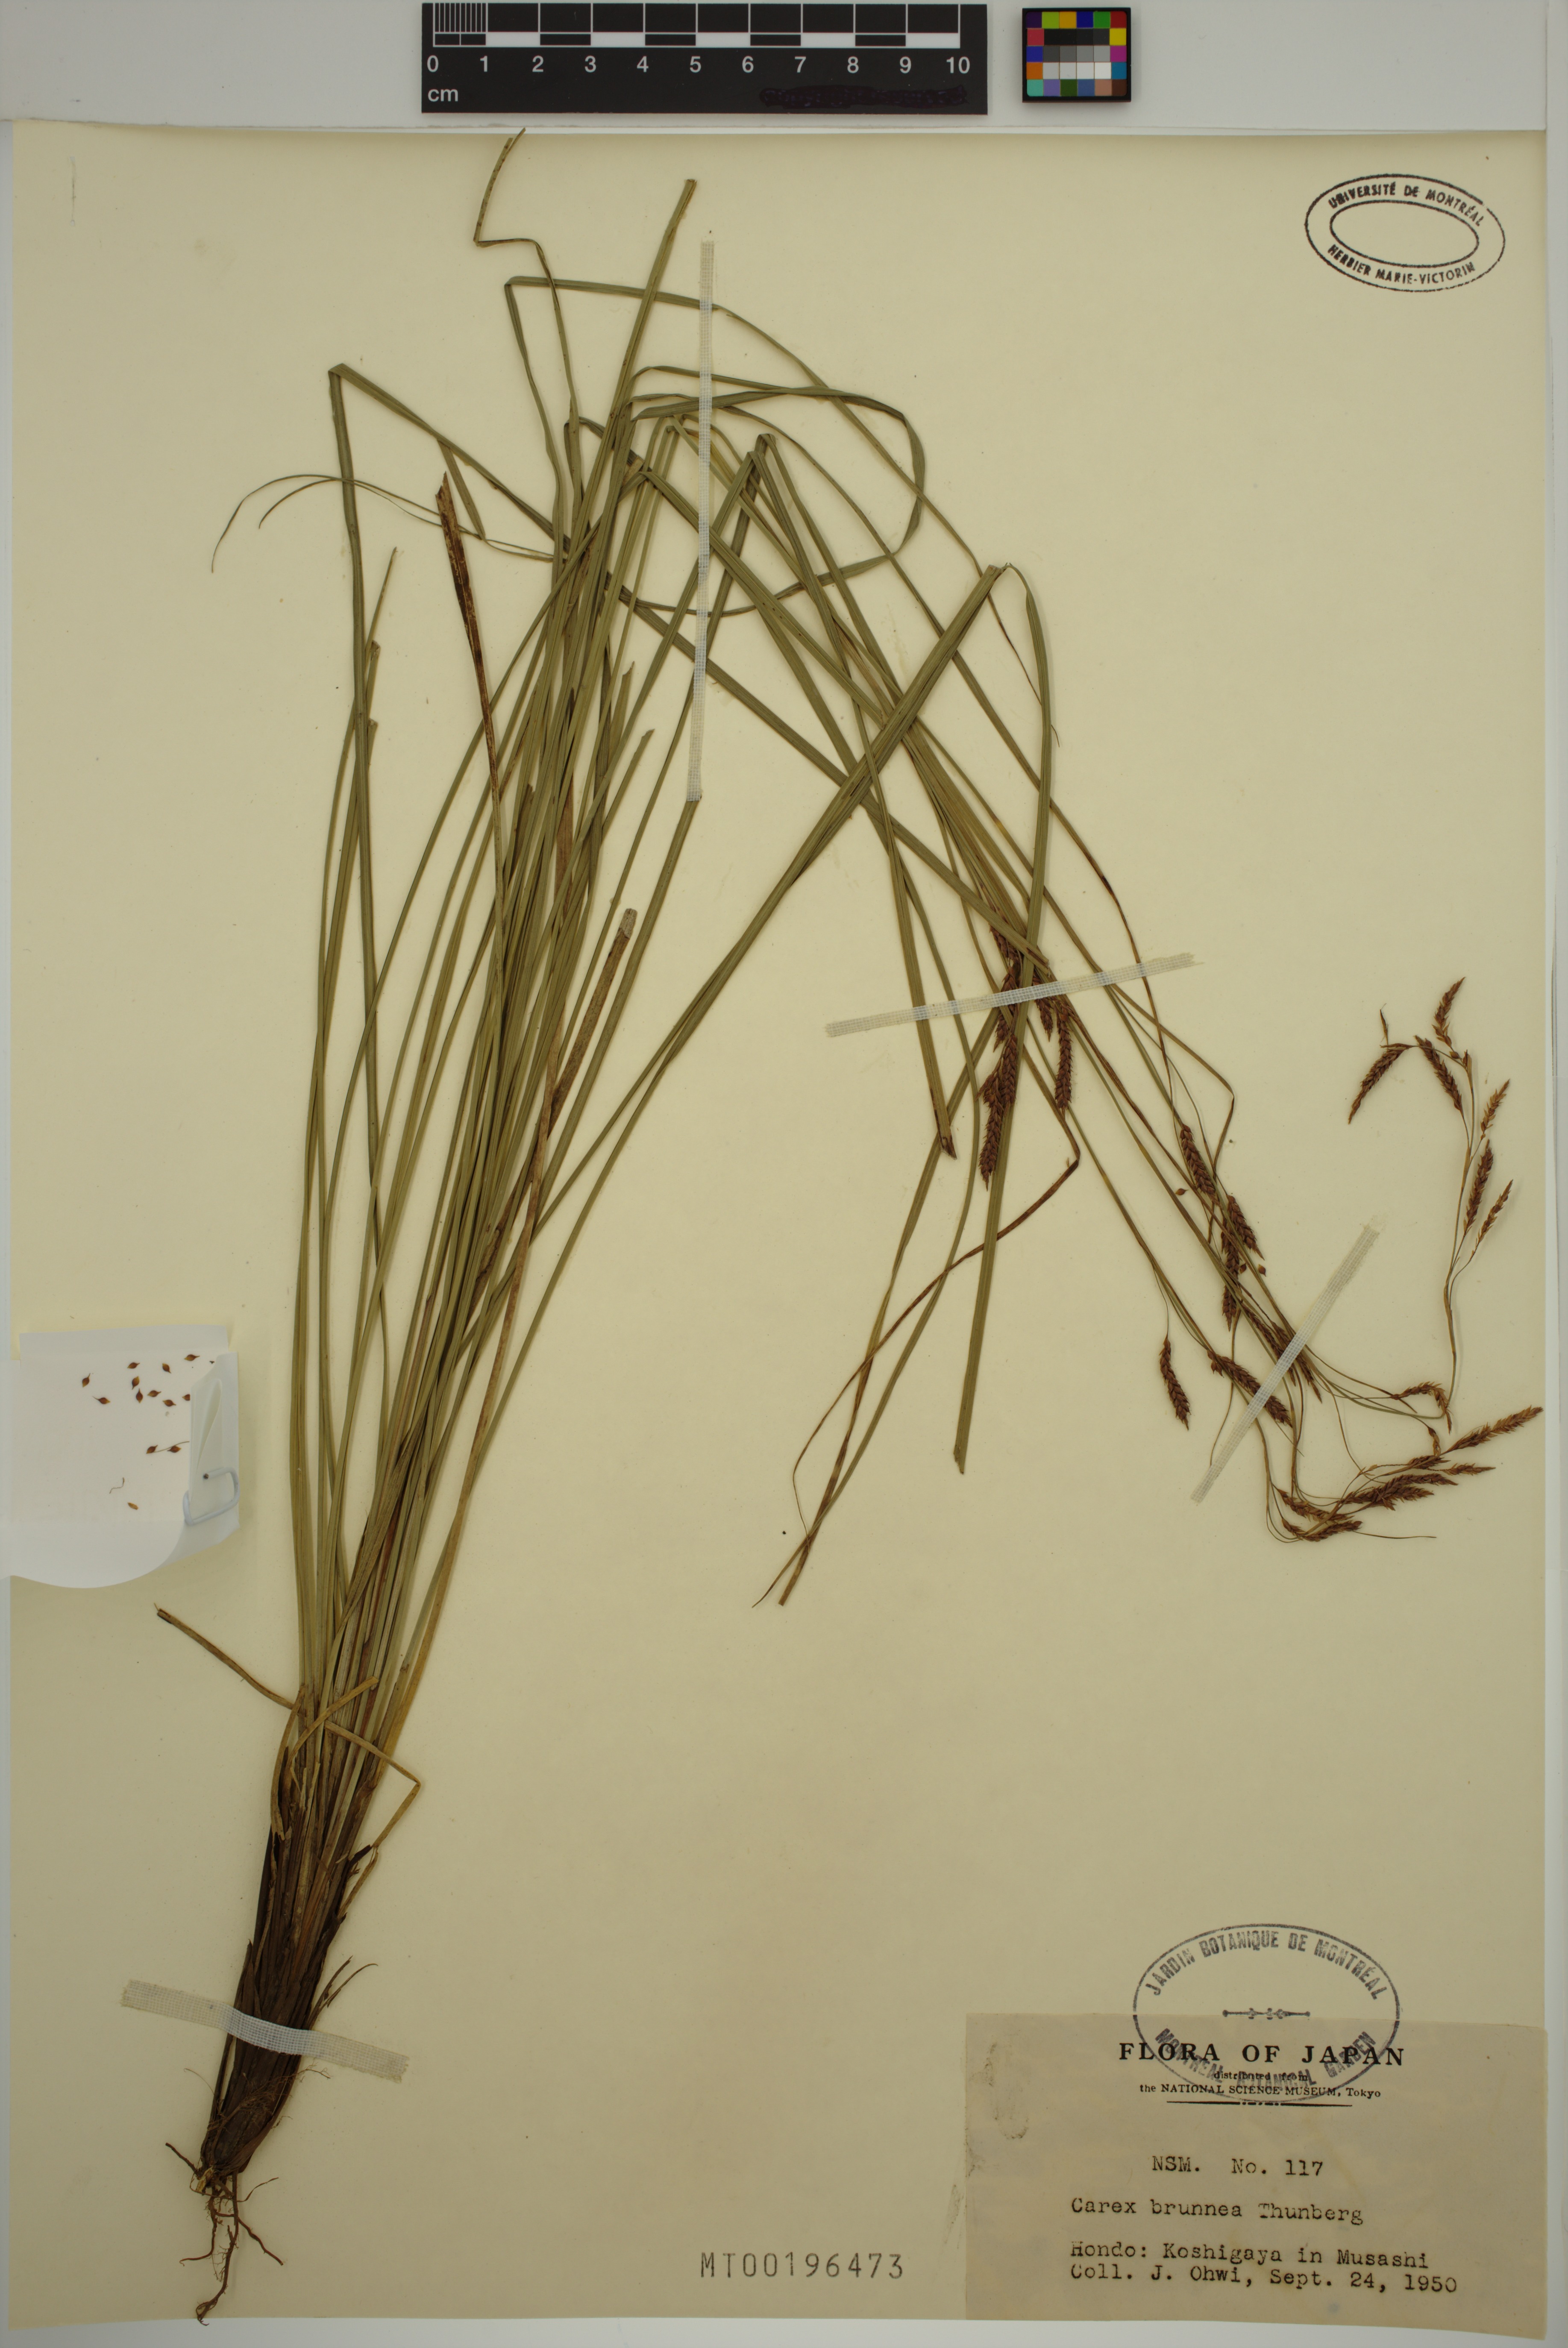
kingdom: Plantae
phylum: Tracheophyta
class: Liliopsida
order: Poales
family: Cyperaceae
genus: Carex
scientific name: Carex brunnea
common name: Greater brown sedge
